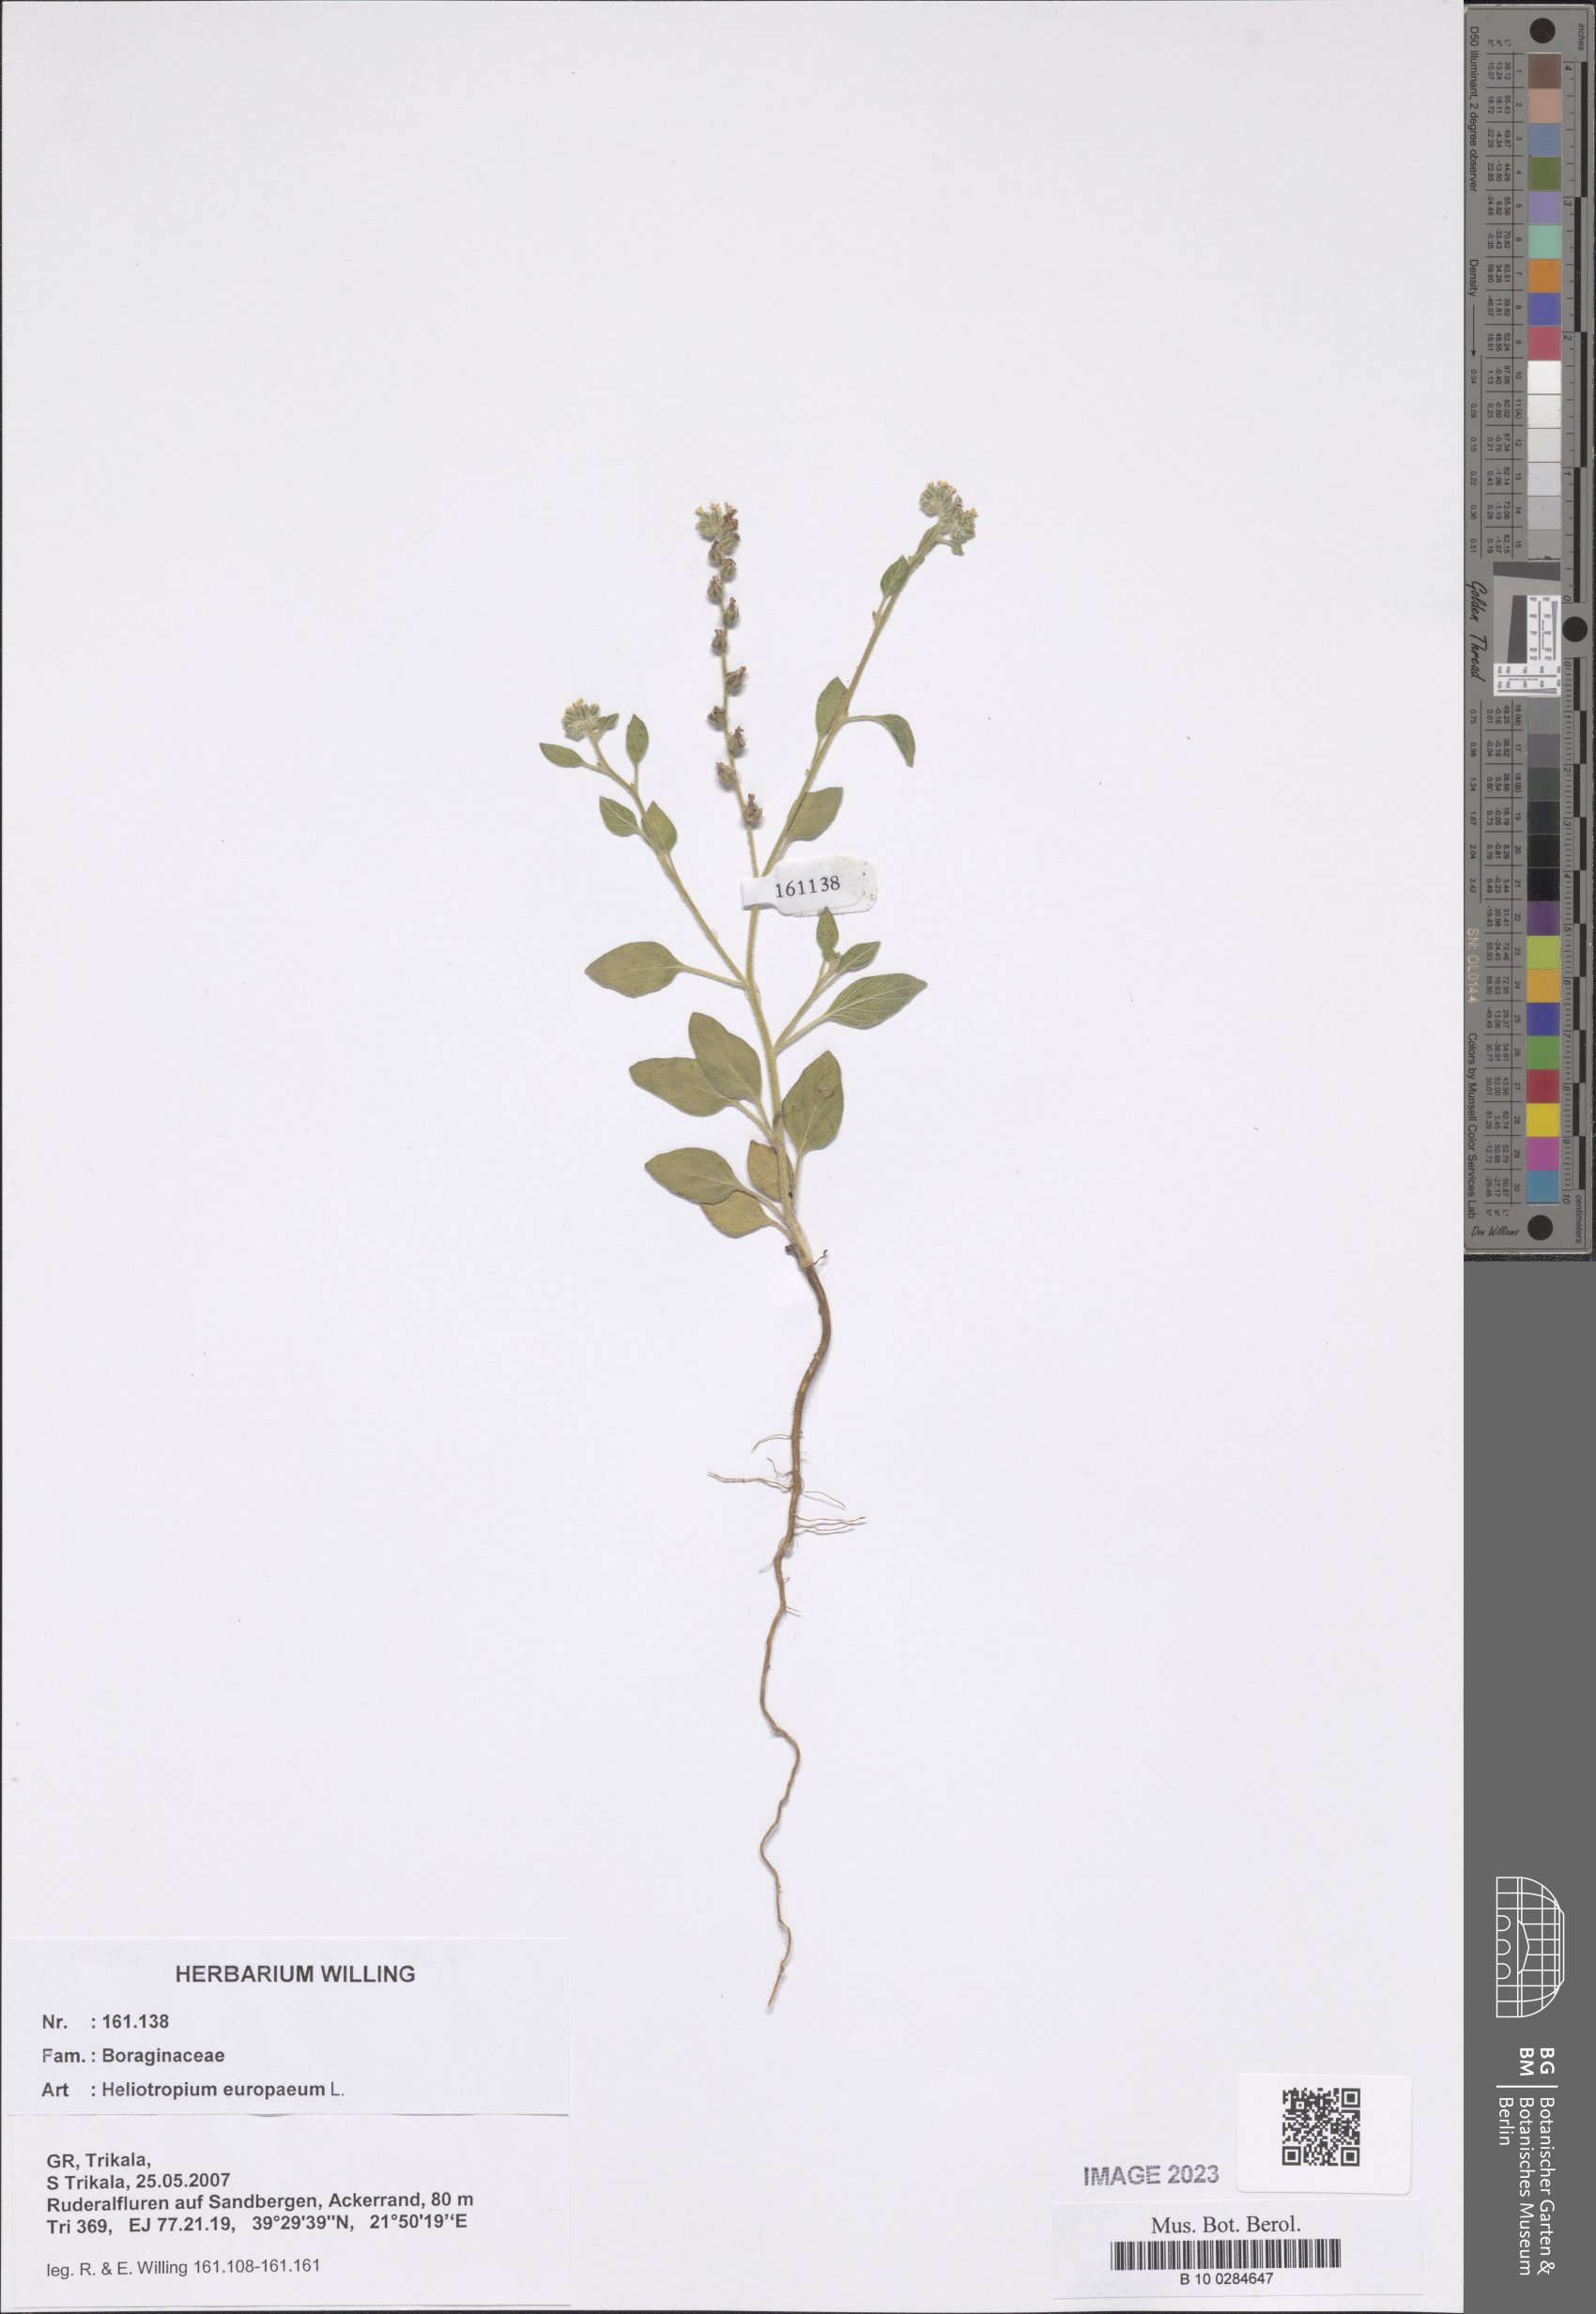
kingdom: Plantae
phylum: Tracheophyta
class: Magnoliopsida
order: Boraginales
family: Heliotropiaceae
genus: Heliotropium
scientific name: Heliotropium europaeum
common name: European heliotrope
